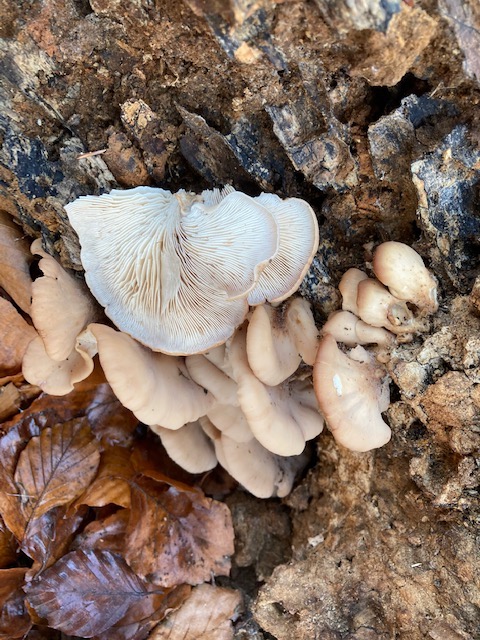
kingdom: Fungi
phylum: Basidiomycota
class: Agaricomycetes
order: Russulales
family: Auriscalpiaceae
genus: Lentinellus
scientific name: Lentinellus ursinus
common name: børstehåret savbladhat
